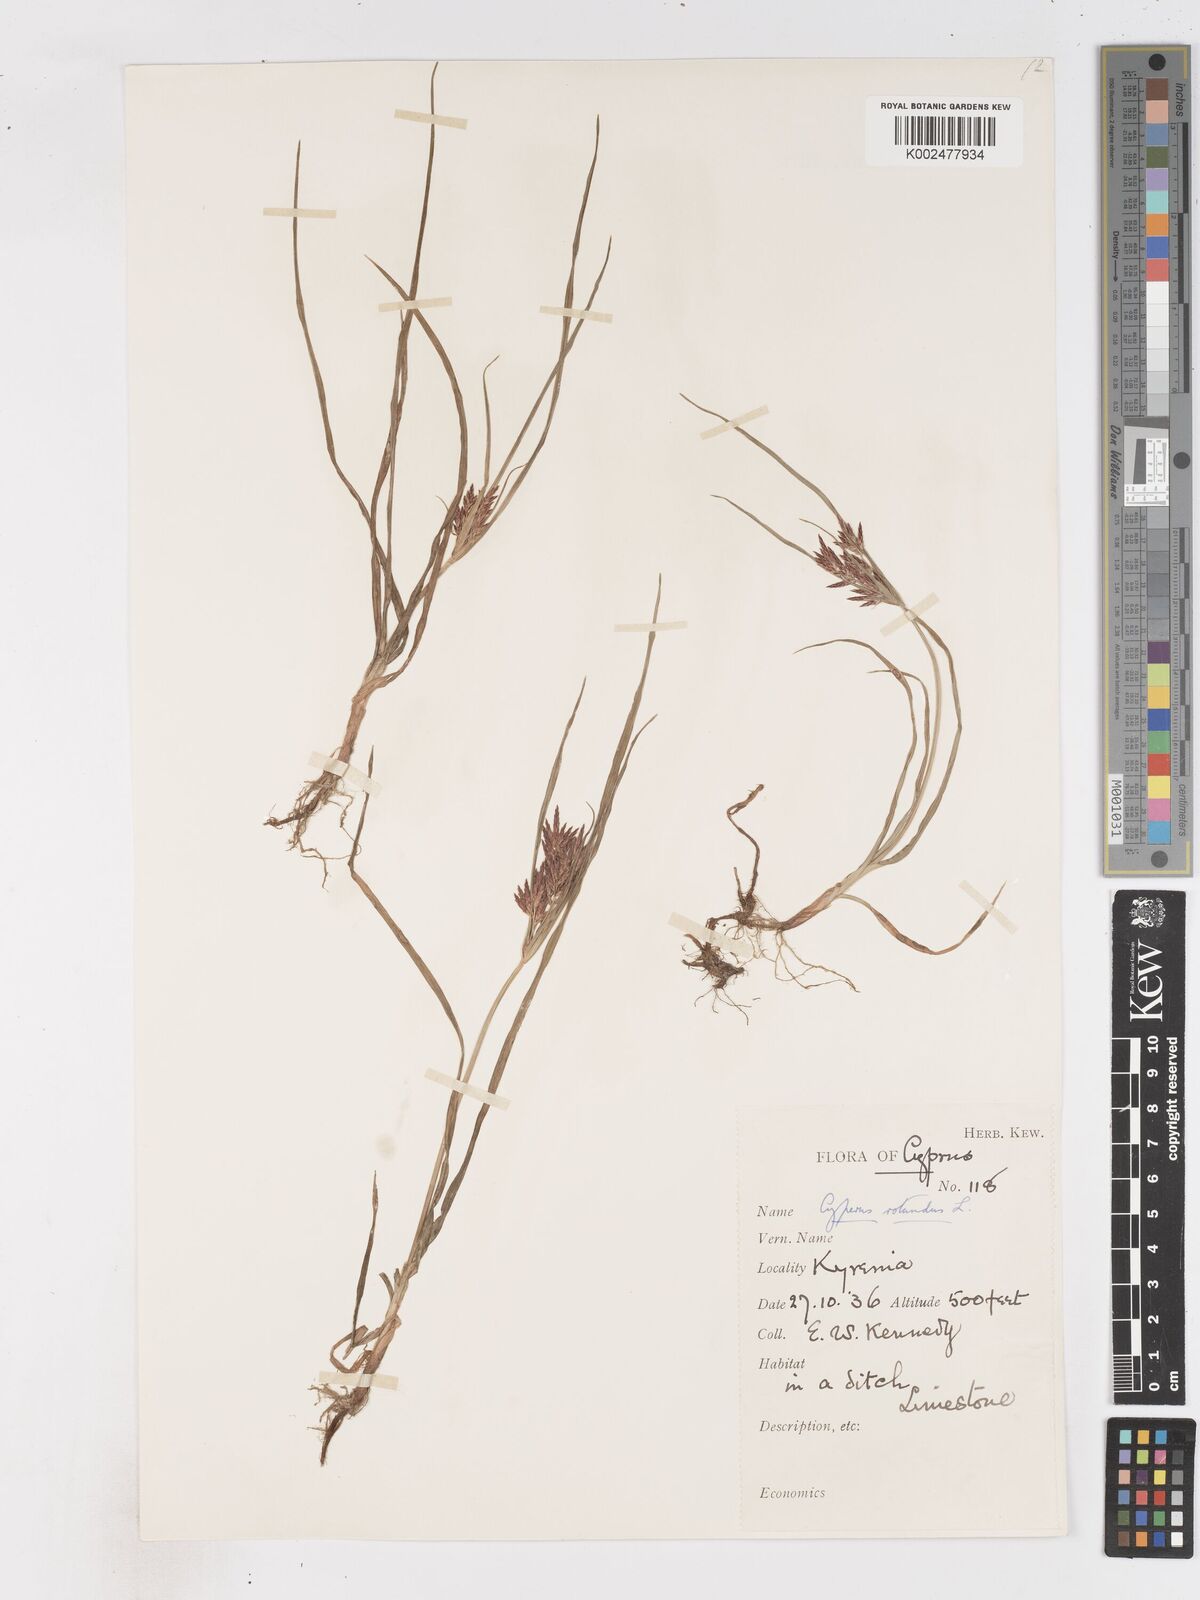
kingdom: Plantae
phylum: Tracheophyta
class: Liliopsida
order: Poales
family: Cyperaceae
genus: Cyperus
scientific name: Cyperus rotundus
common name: Nutgrass
